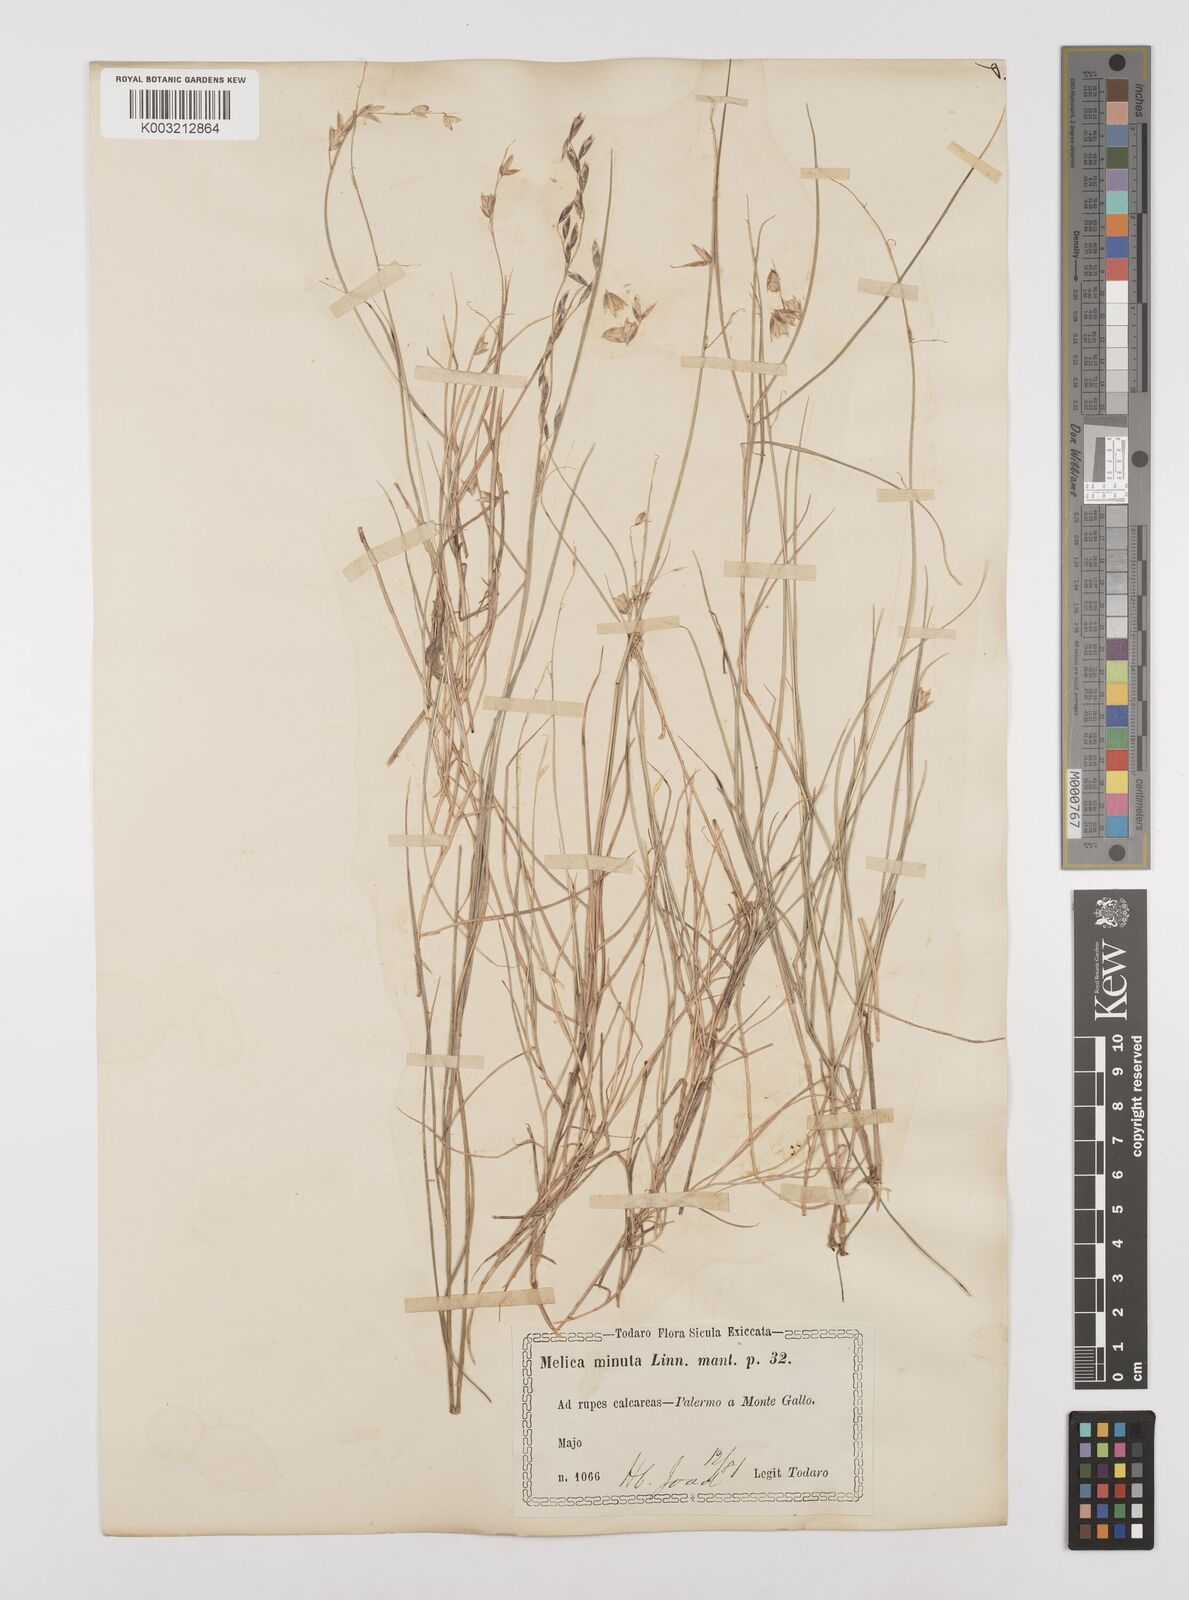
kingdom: Plantae
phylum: Tracheophyta
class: Liliopsida
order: Poales
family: Poaceae
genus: Melica
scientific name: Melica minuta
